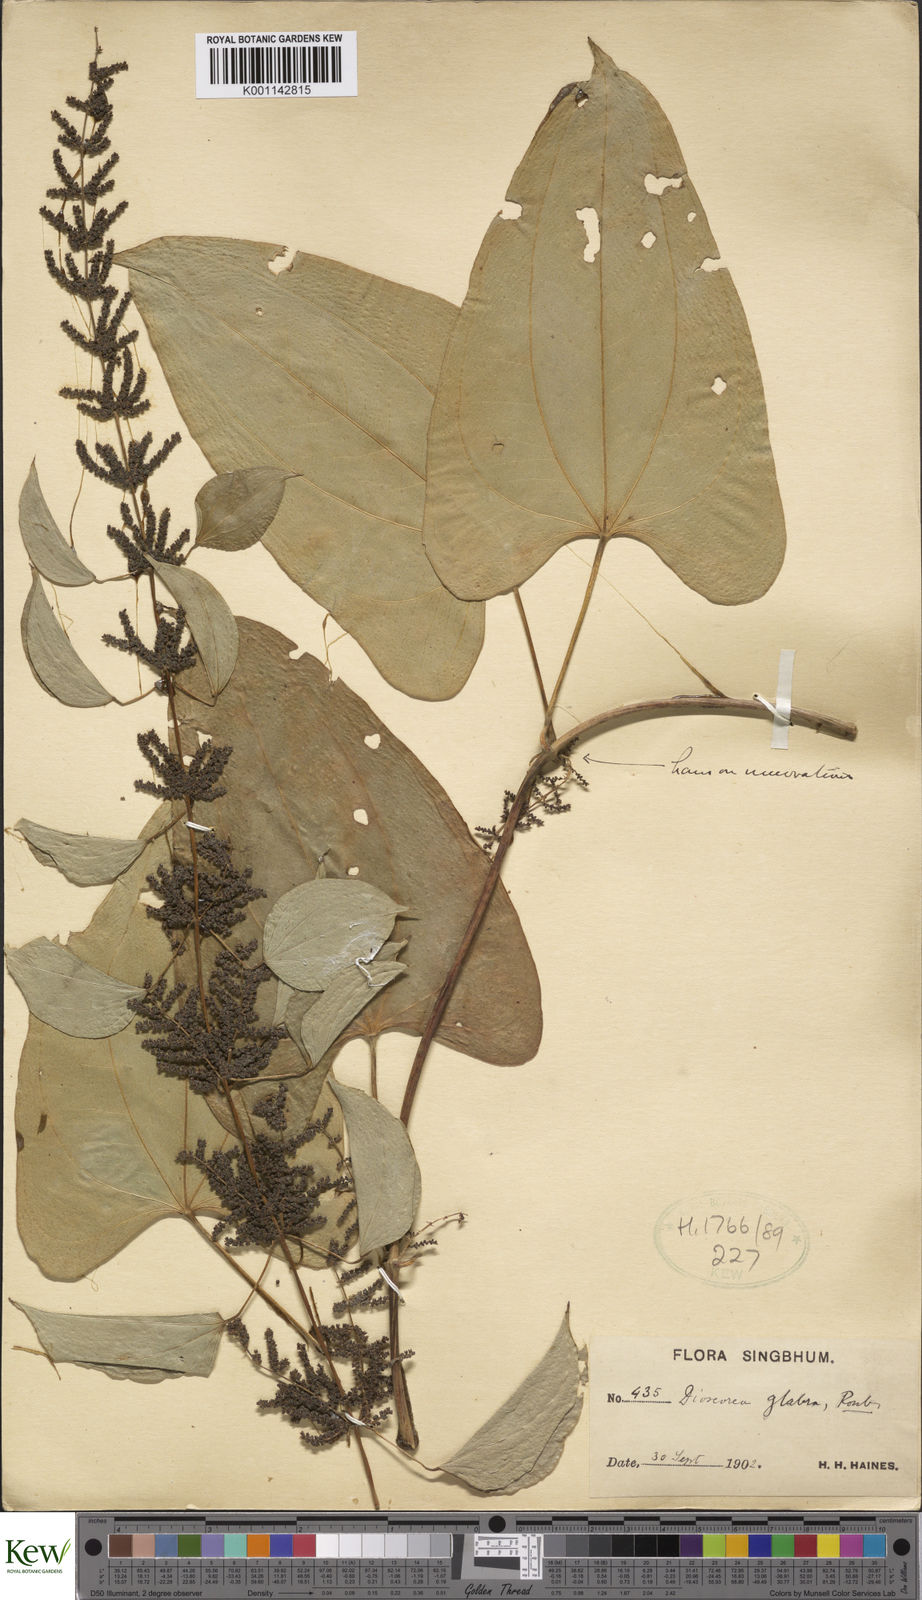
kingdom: Plantae
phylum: Tracheophyta
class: Liliopsida
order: Dioscoreales
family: Dioscoreaceae
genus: Dioscorea
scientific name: Dioscorea glabra
